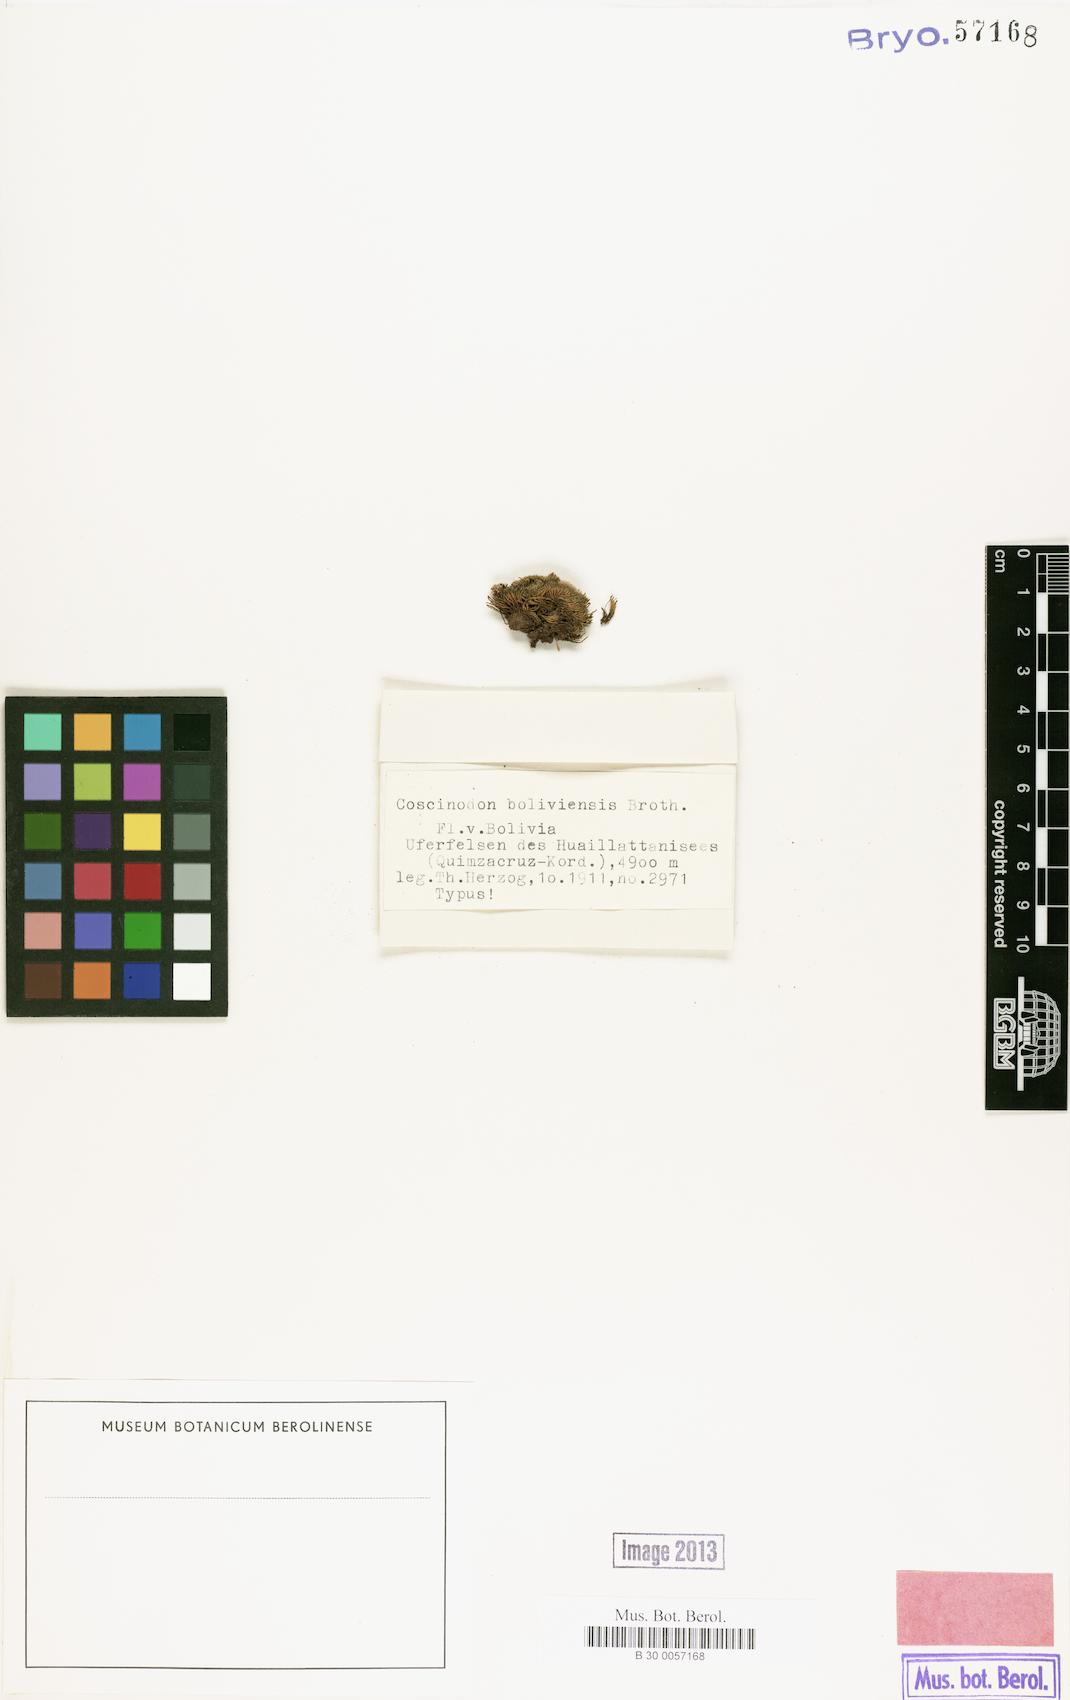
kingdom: Plantae
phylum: Bryophyta
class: Bryopsida
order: Grimmiales
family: Grimmiaceae
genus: Coscinodon
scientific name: Coscinodon bolivianus
